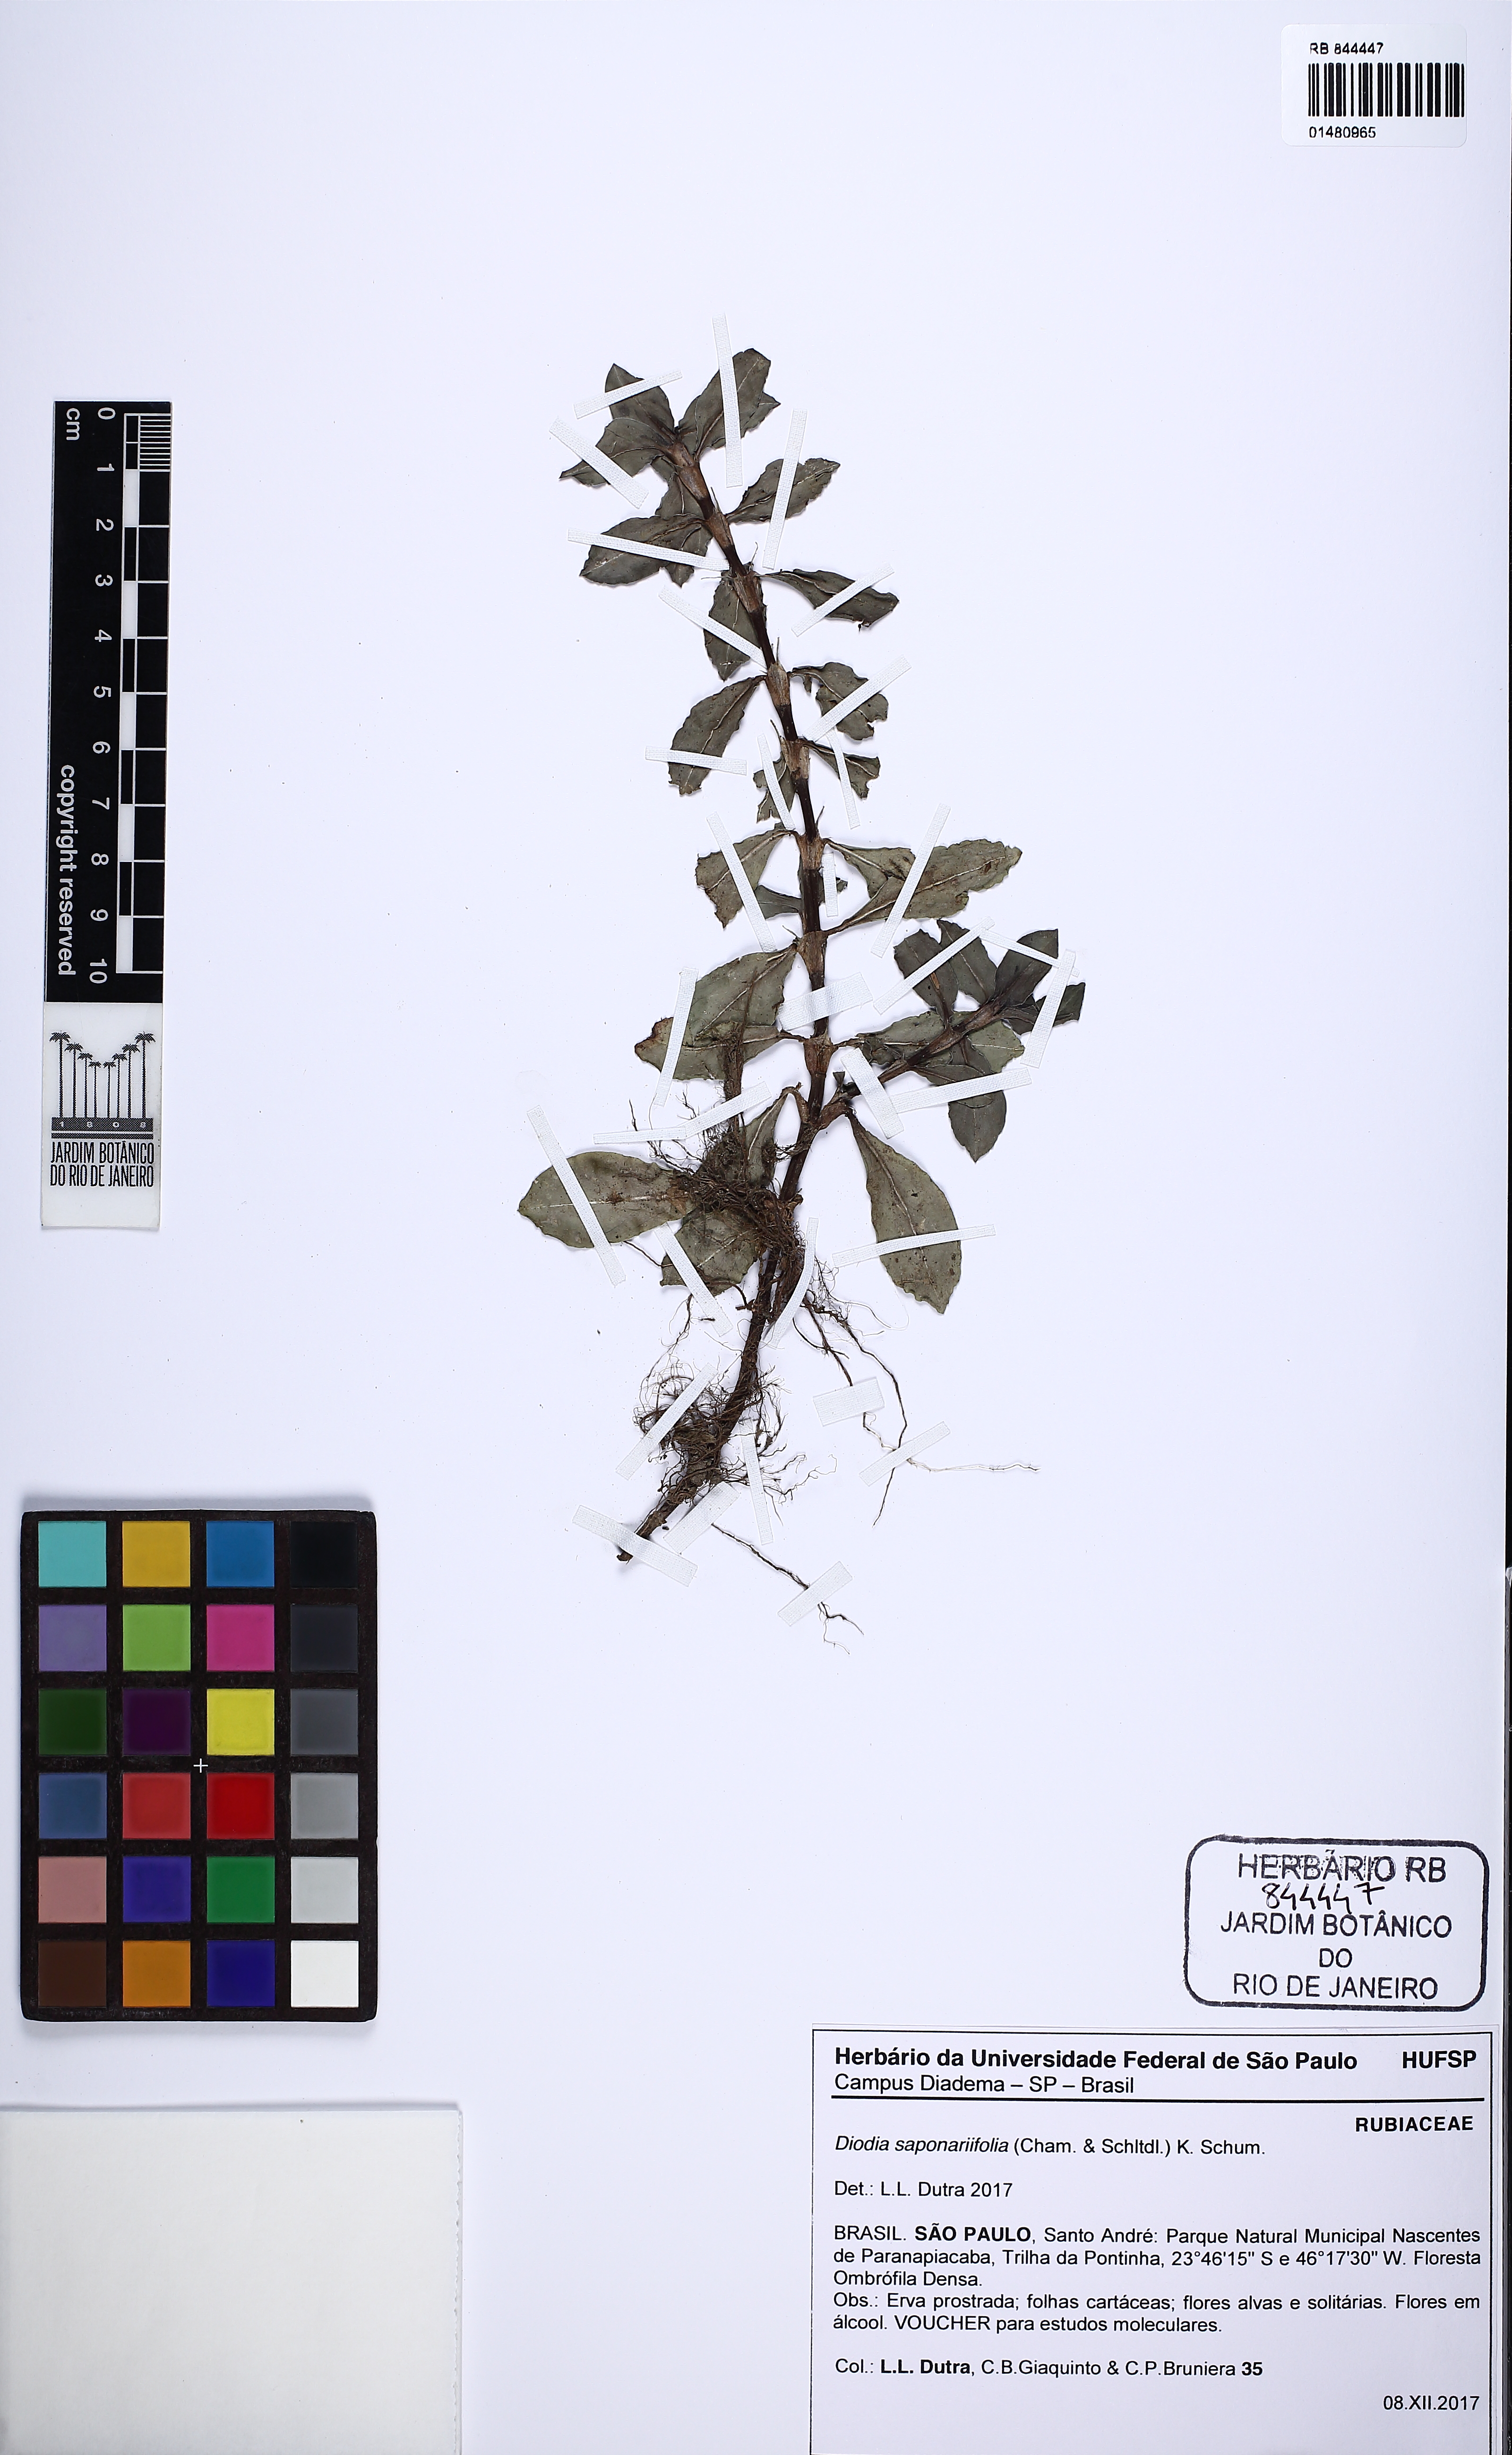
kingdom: Plantae
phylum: Tracheophyta
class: Magnoliopsida
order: Gentianales
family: Rubiaceae
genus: Diodia
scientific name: Diodia saponariifolia
